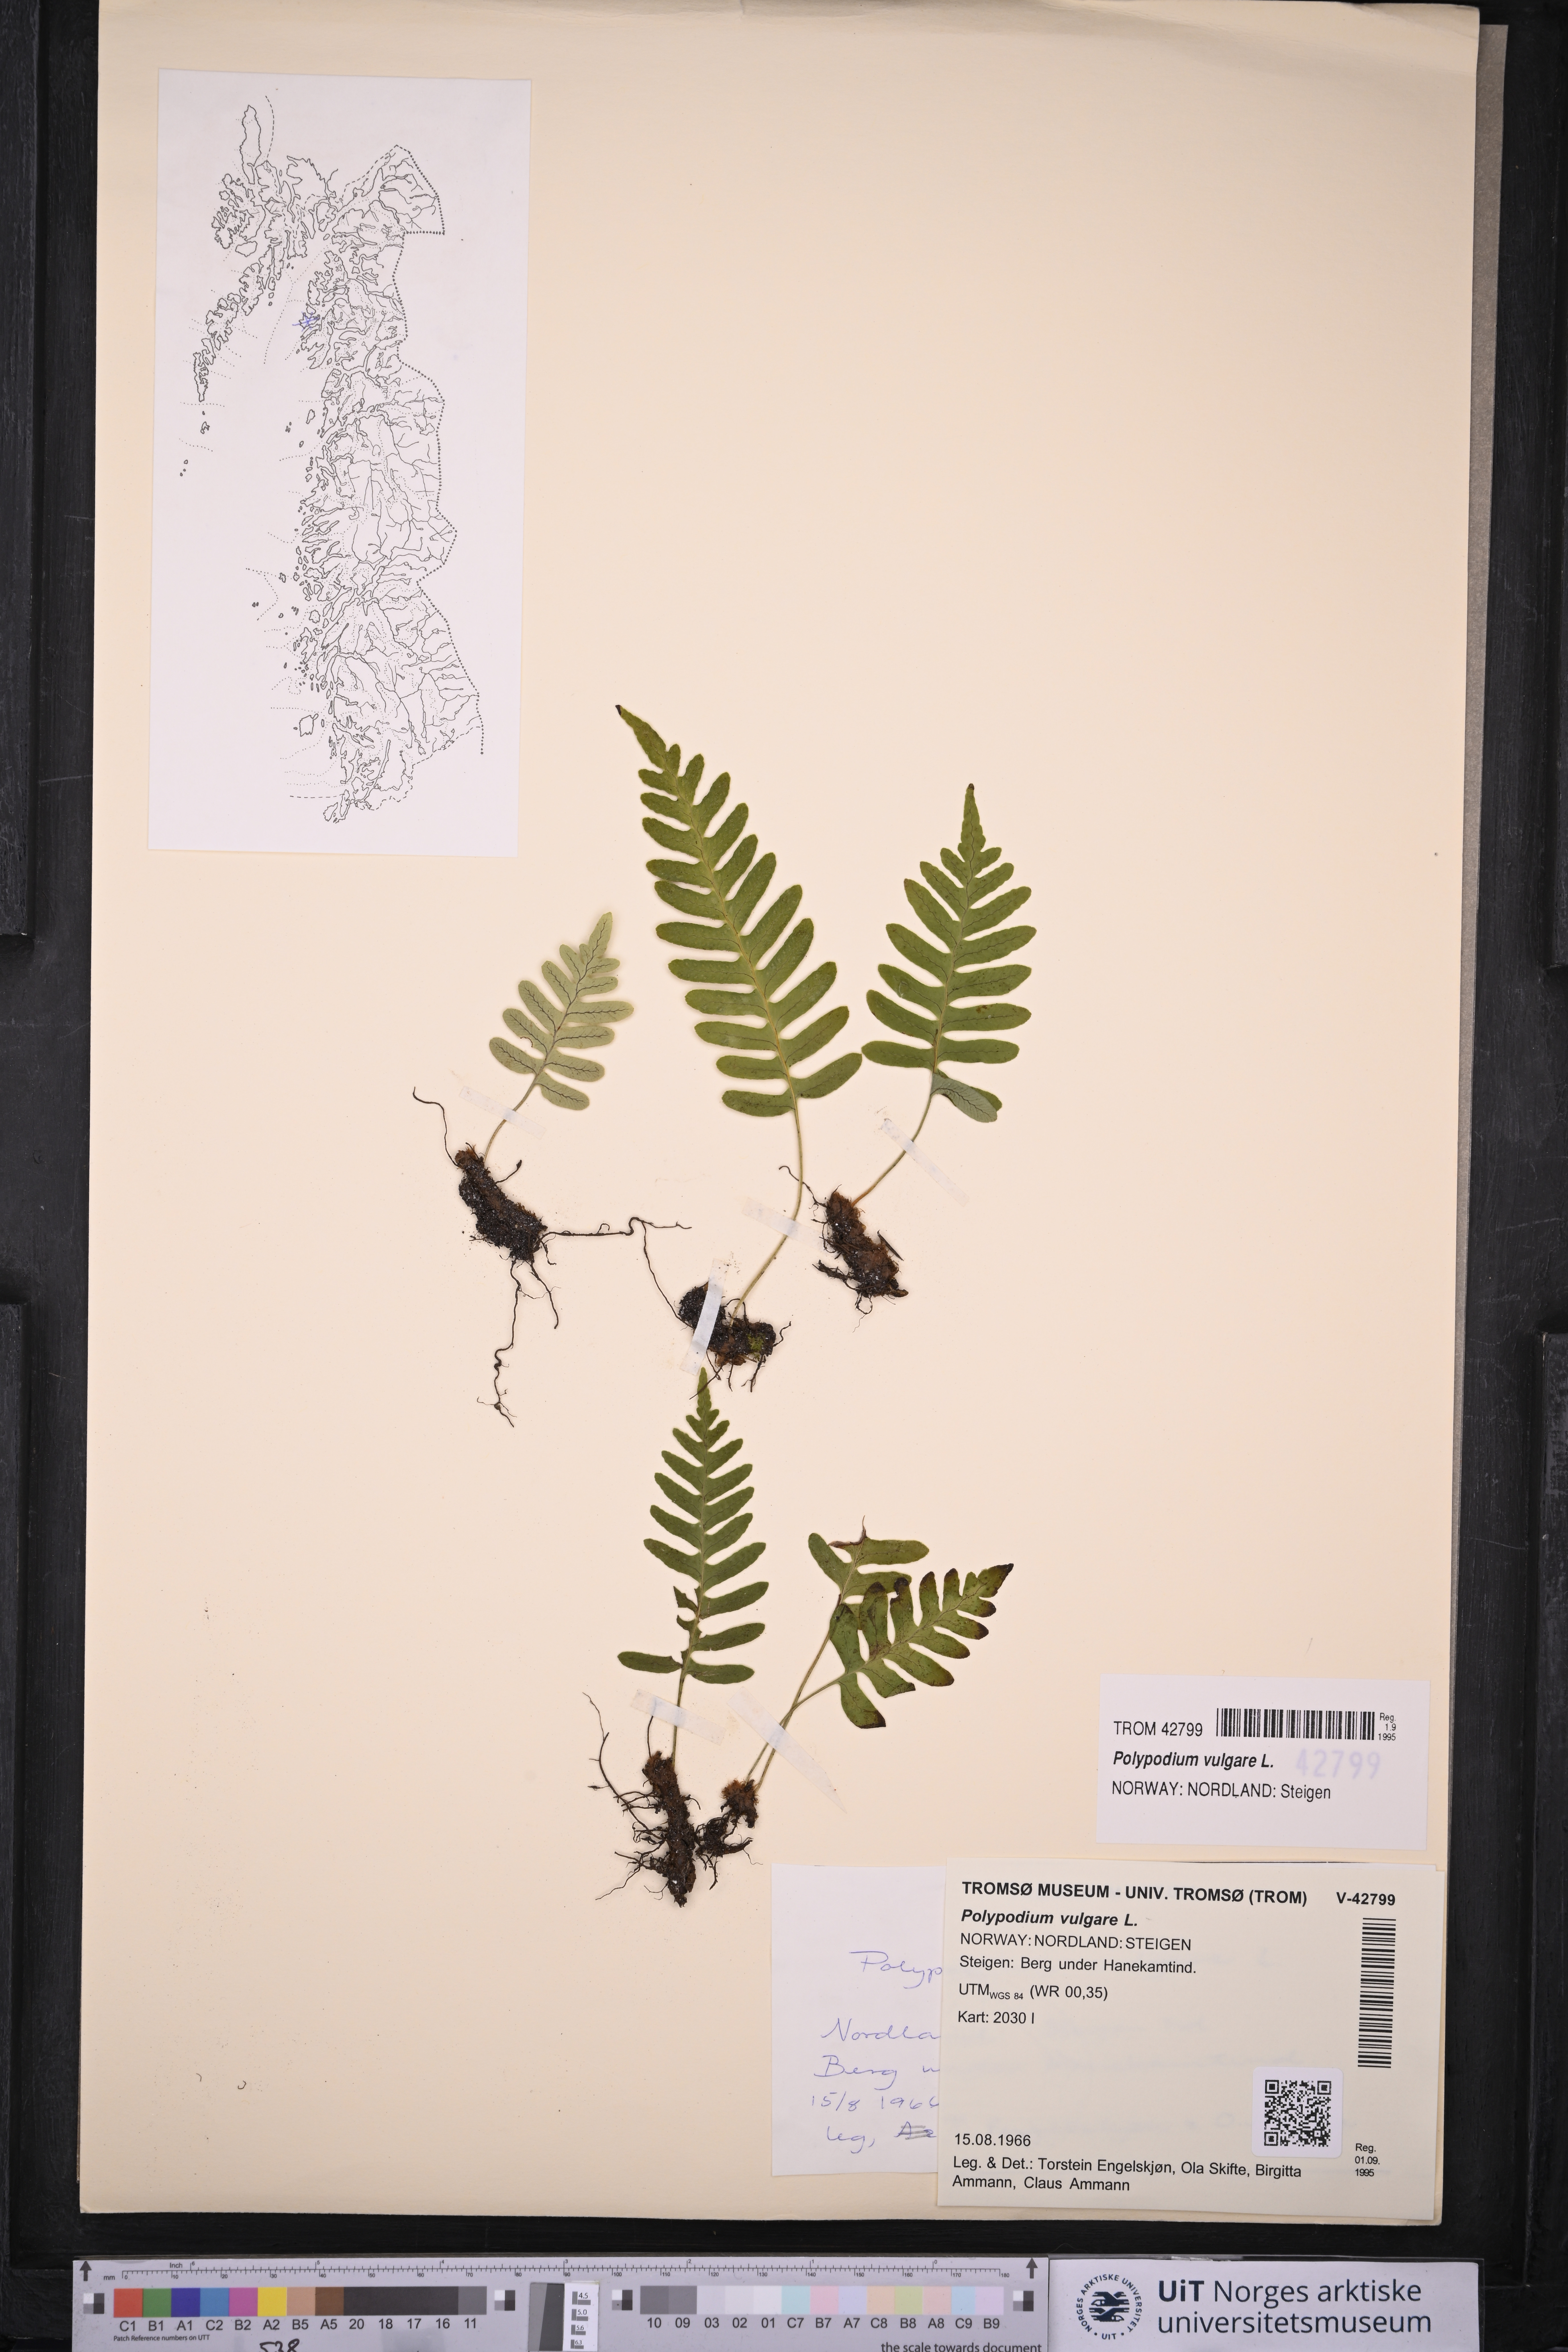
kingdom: Plantae
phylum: Tracheophyta
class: Polypodiopsida
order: Polypodiales
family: Polypodiaceae
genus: Polypodium
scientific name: Polypodium vulgare
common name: Common polypody
